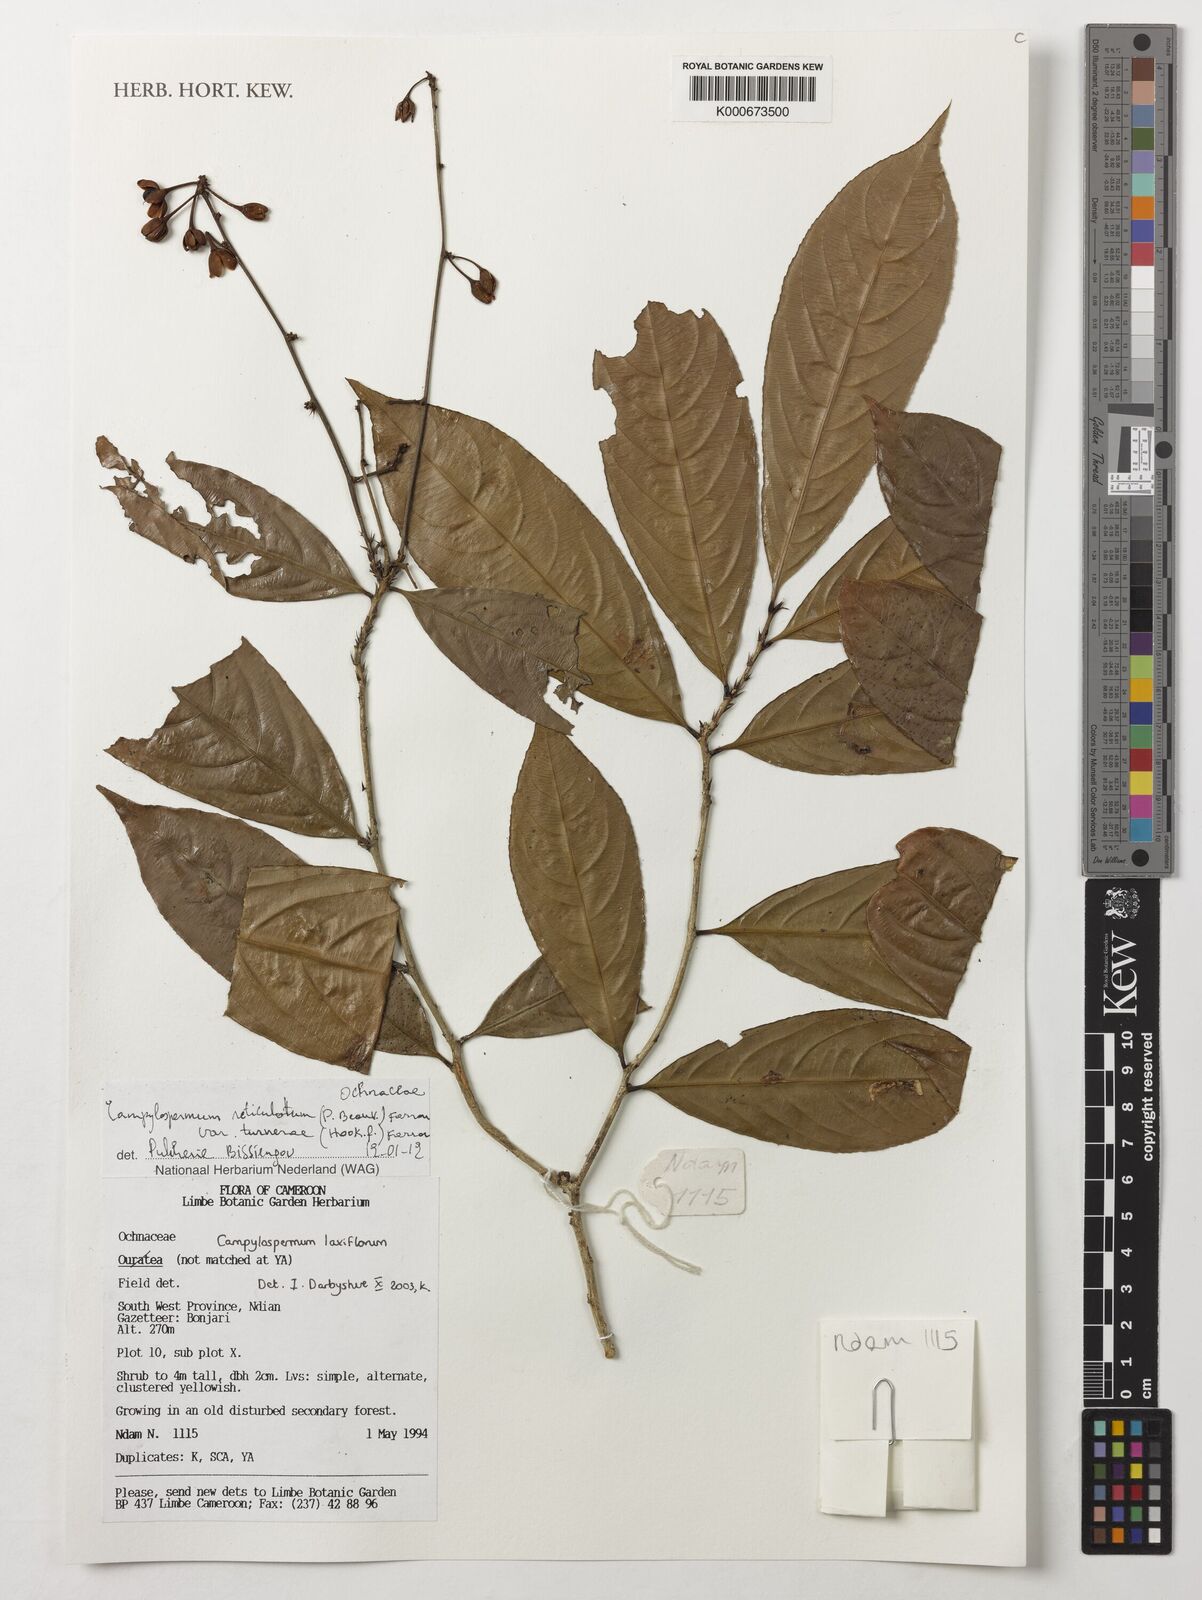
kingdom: Plantae
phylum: Tracheophyta
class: Magnoliopsida
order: Malpighiales
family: Ochnaceae
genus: Campylospermum
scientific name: Campylospermum reticulatum
